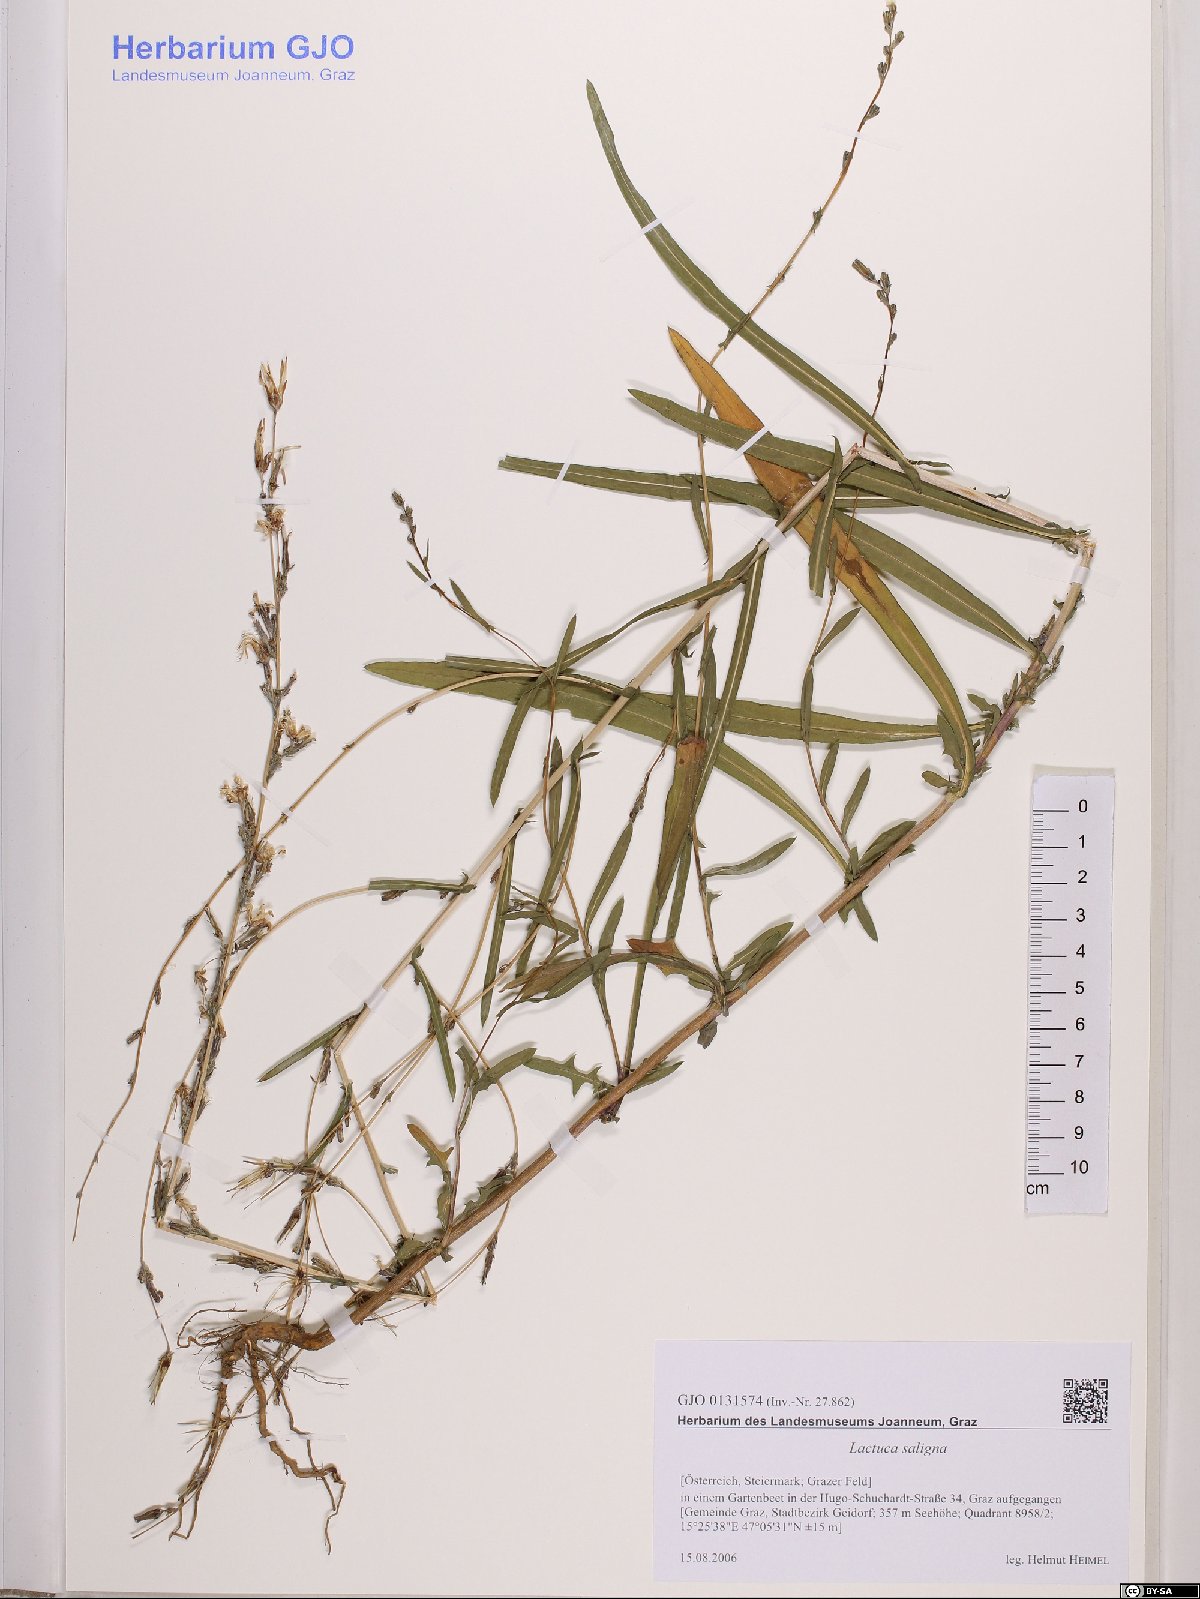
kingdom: Plantae
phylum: Tracheophyta
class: Magnoliopsida
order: Asterales
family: Asteraceae
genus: Lactuca
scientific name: Lactuca saligna
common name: Wild lettuce
